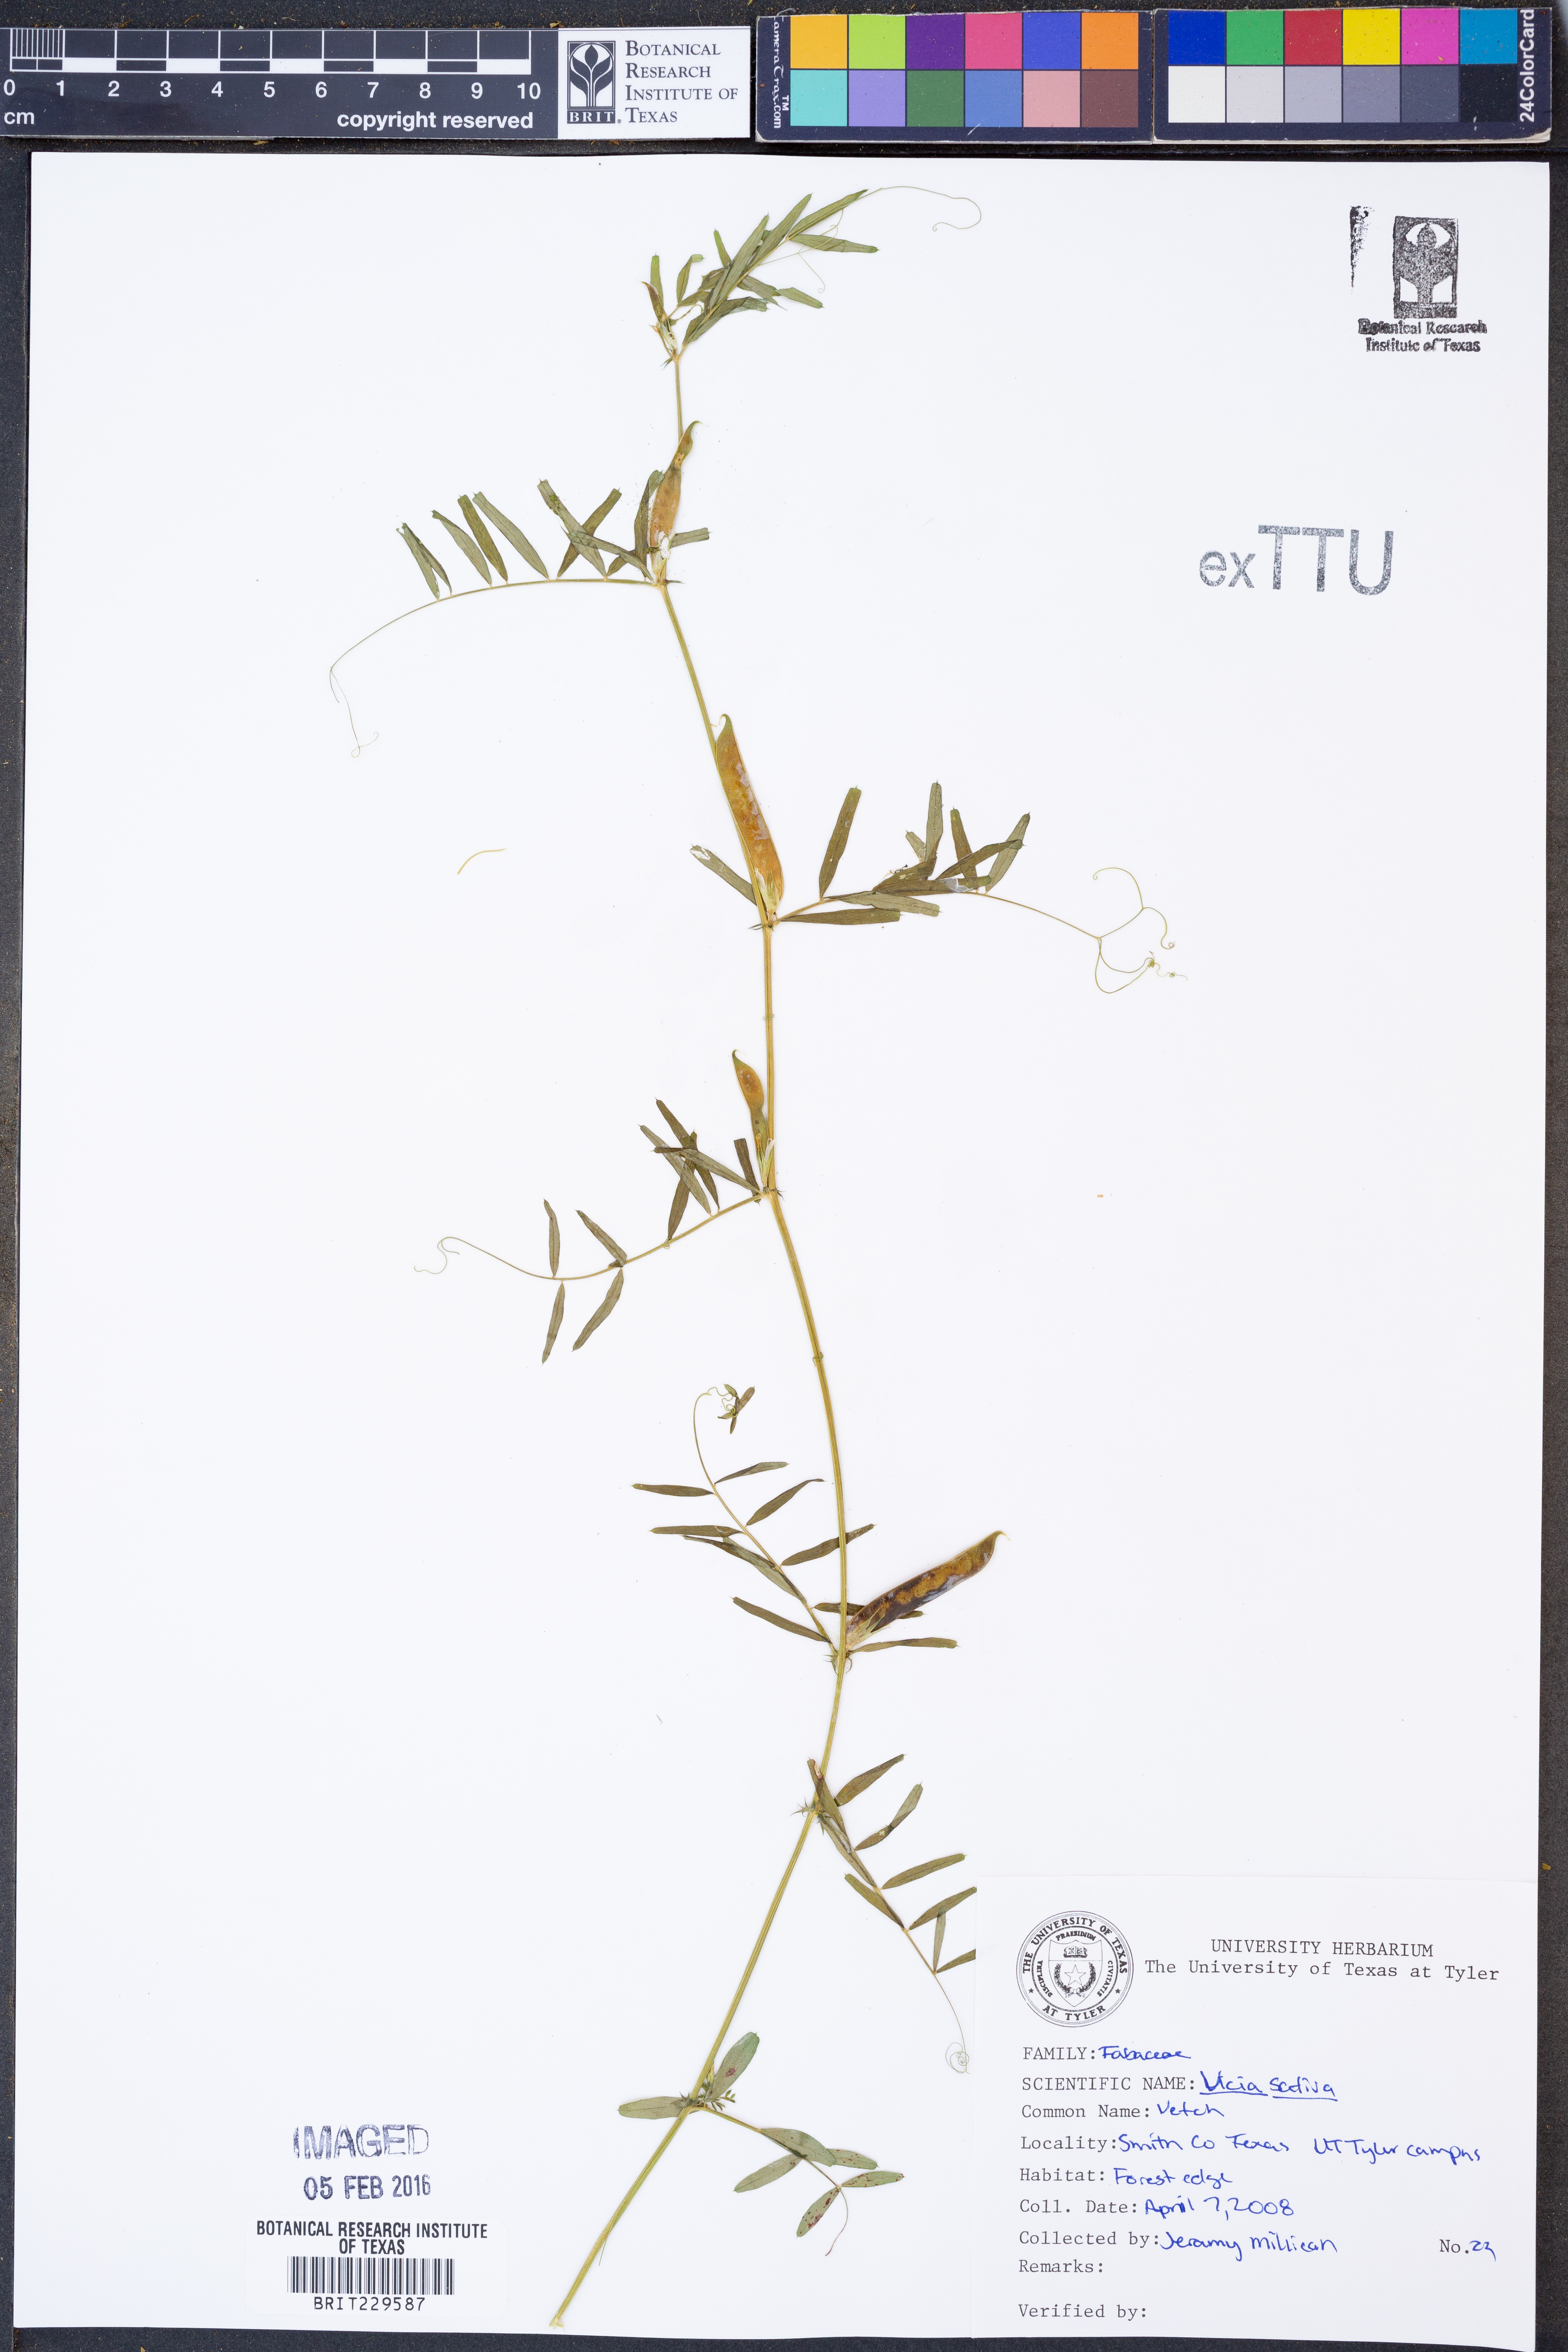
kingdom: Plantae
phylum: Tracheophyta
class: Magnoliopsida
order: Fabales
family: Fabaceae
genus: Vicia
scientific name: Vicia sativa
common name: Garden vetch
